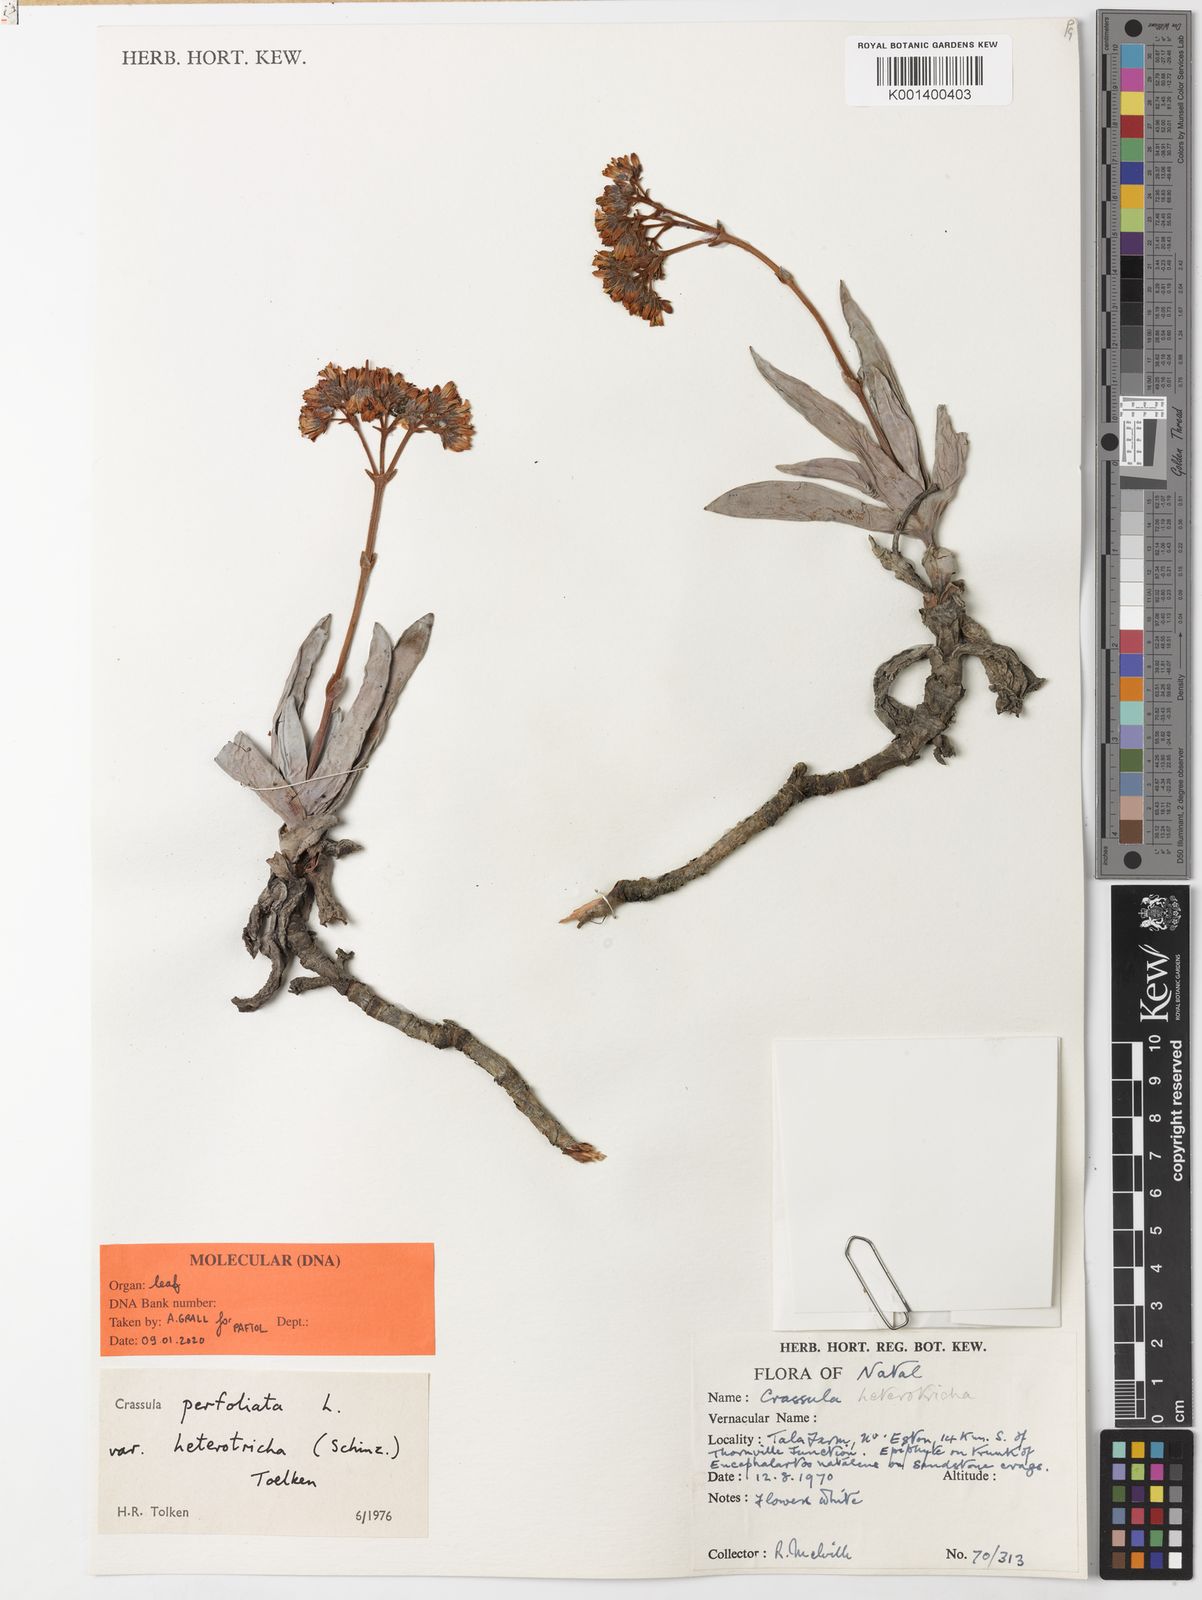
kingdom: Plantae
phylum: Tracheophyta
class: Magnoliopsida
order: Saxifragales
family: Crassulaceae
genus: Crassula
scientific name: Crassula perfoliata
